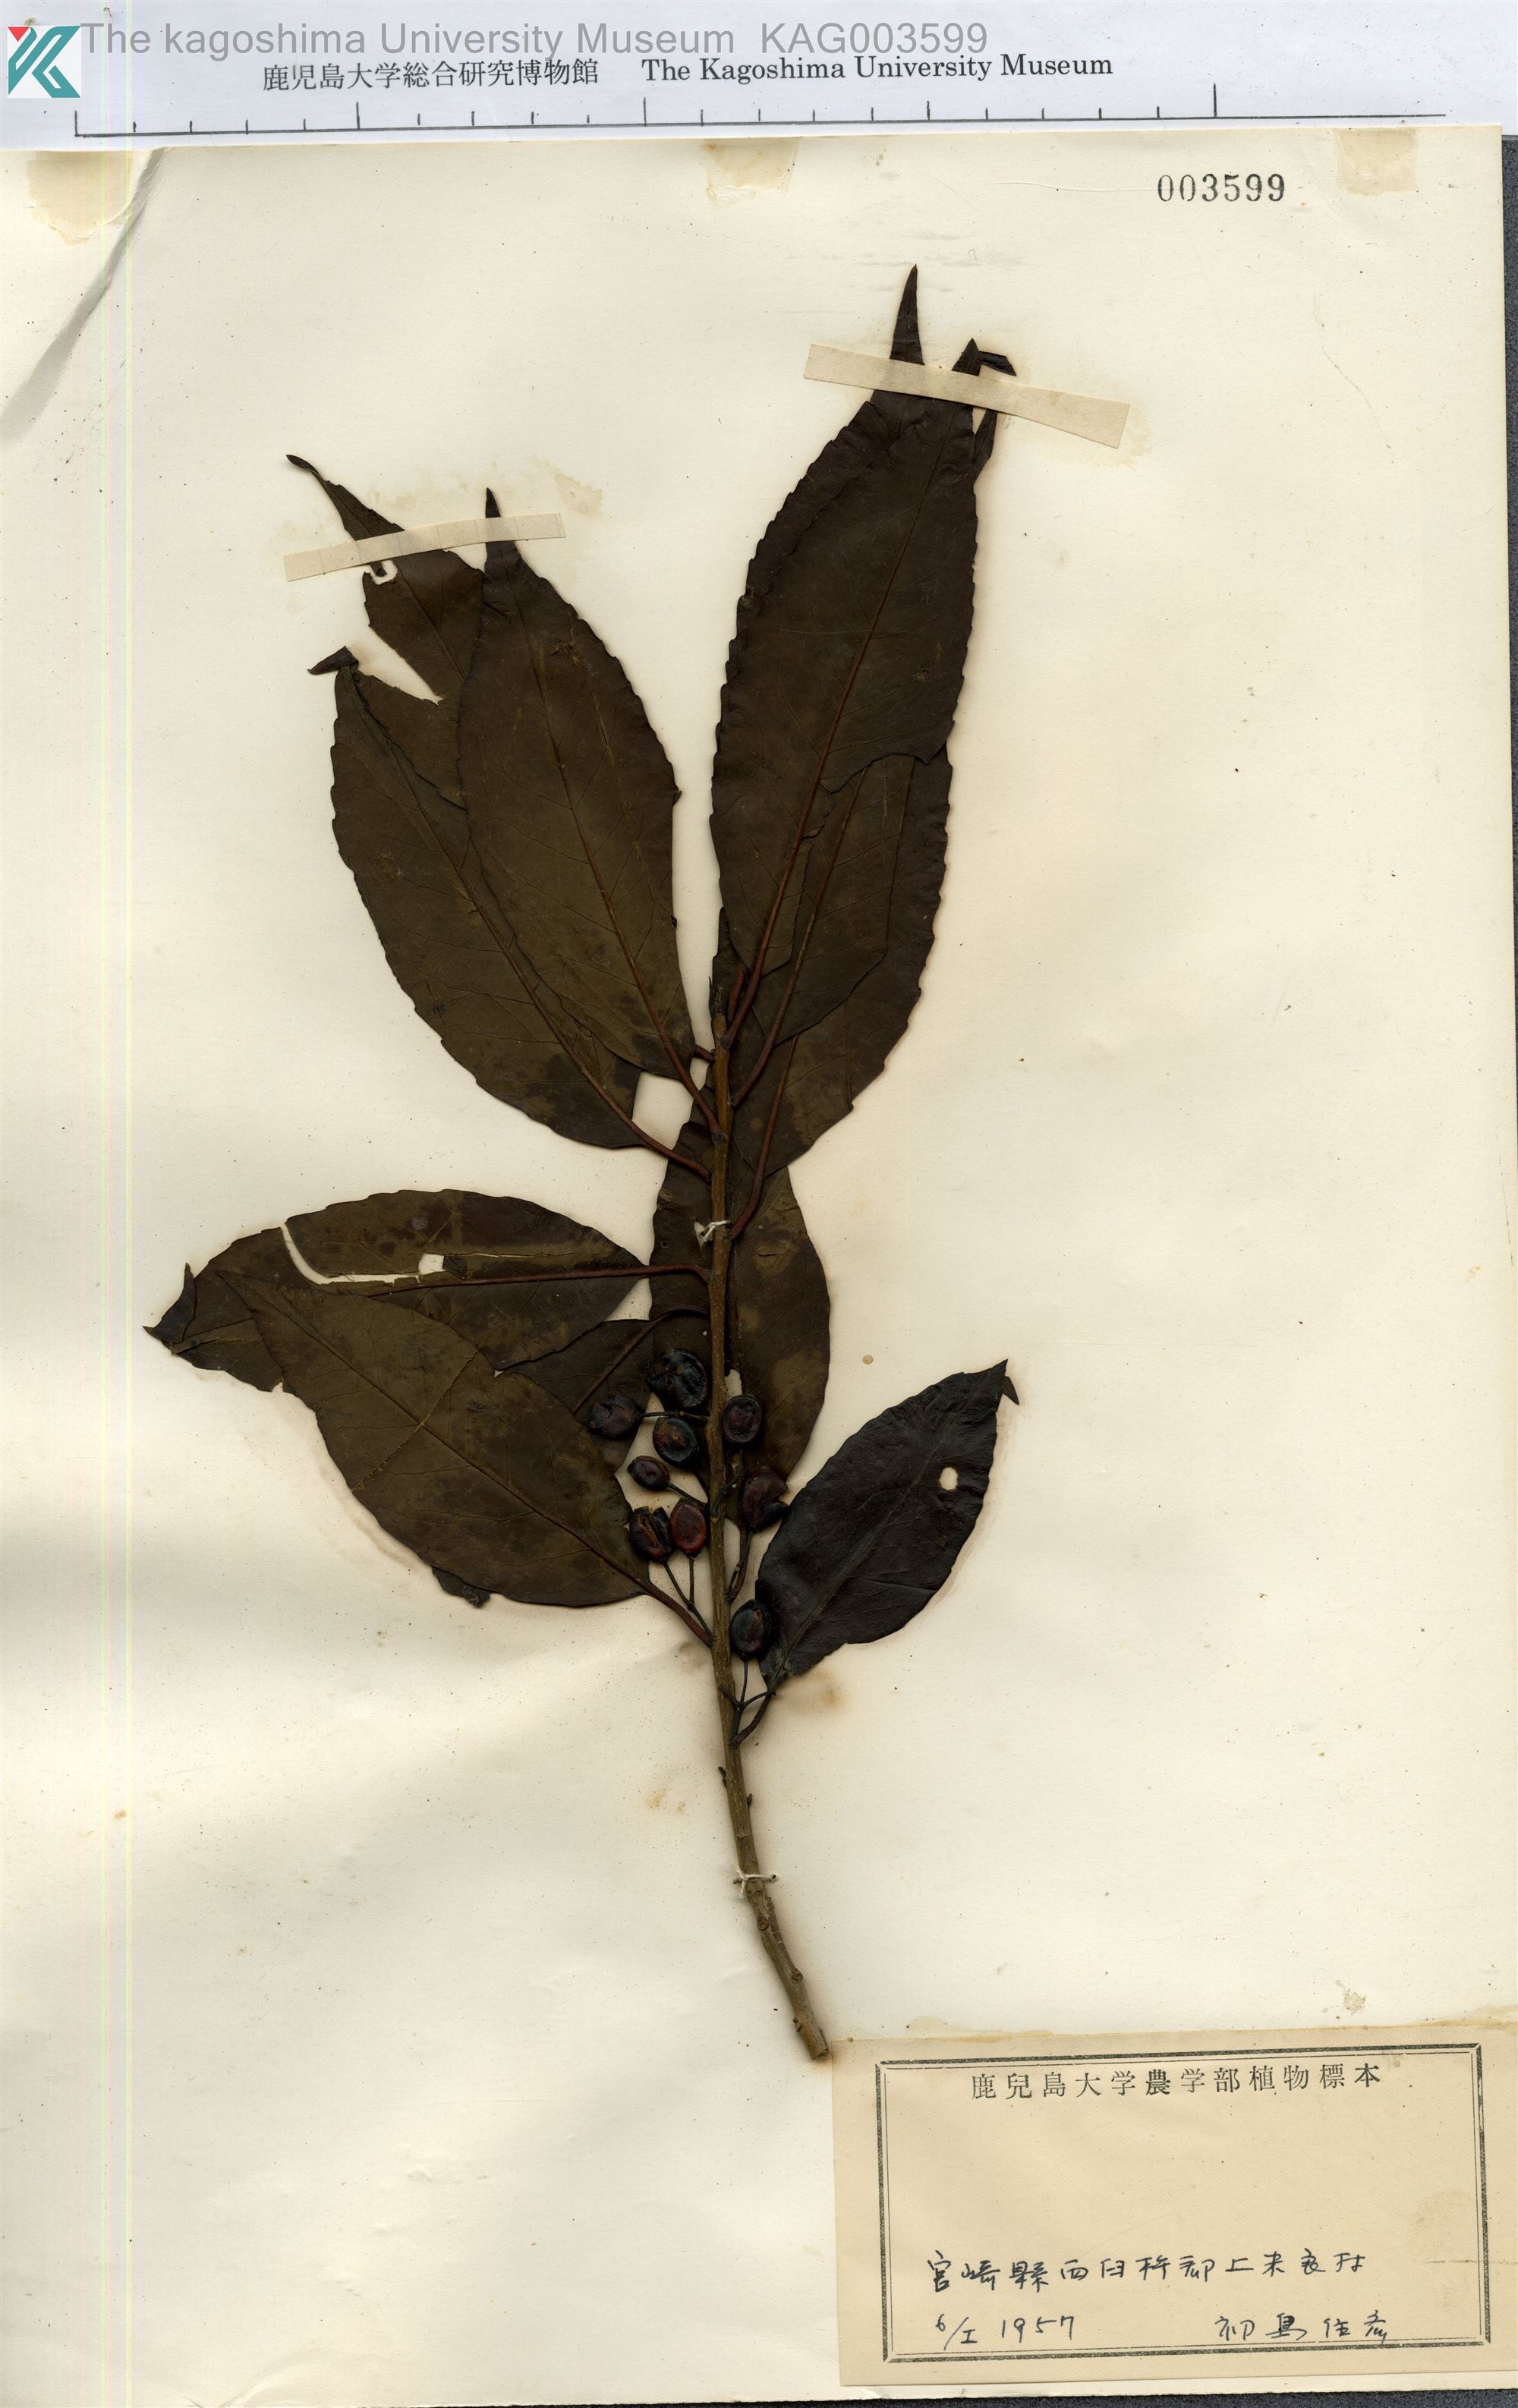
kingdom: Plantae
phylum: Tracheophyta
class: Magnoliopsida
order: Aquifoliales
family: Aquifoliaceae
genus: Ilex
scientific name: Ilex chinensis
